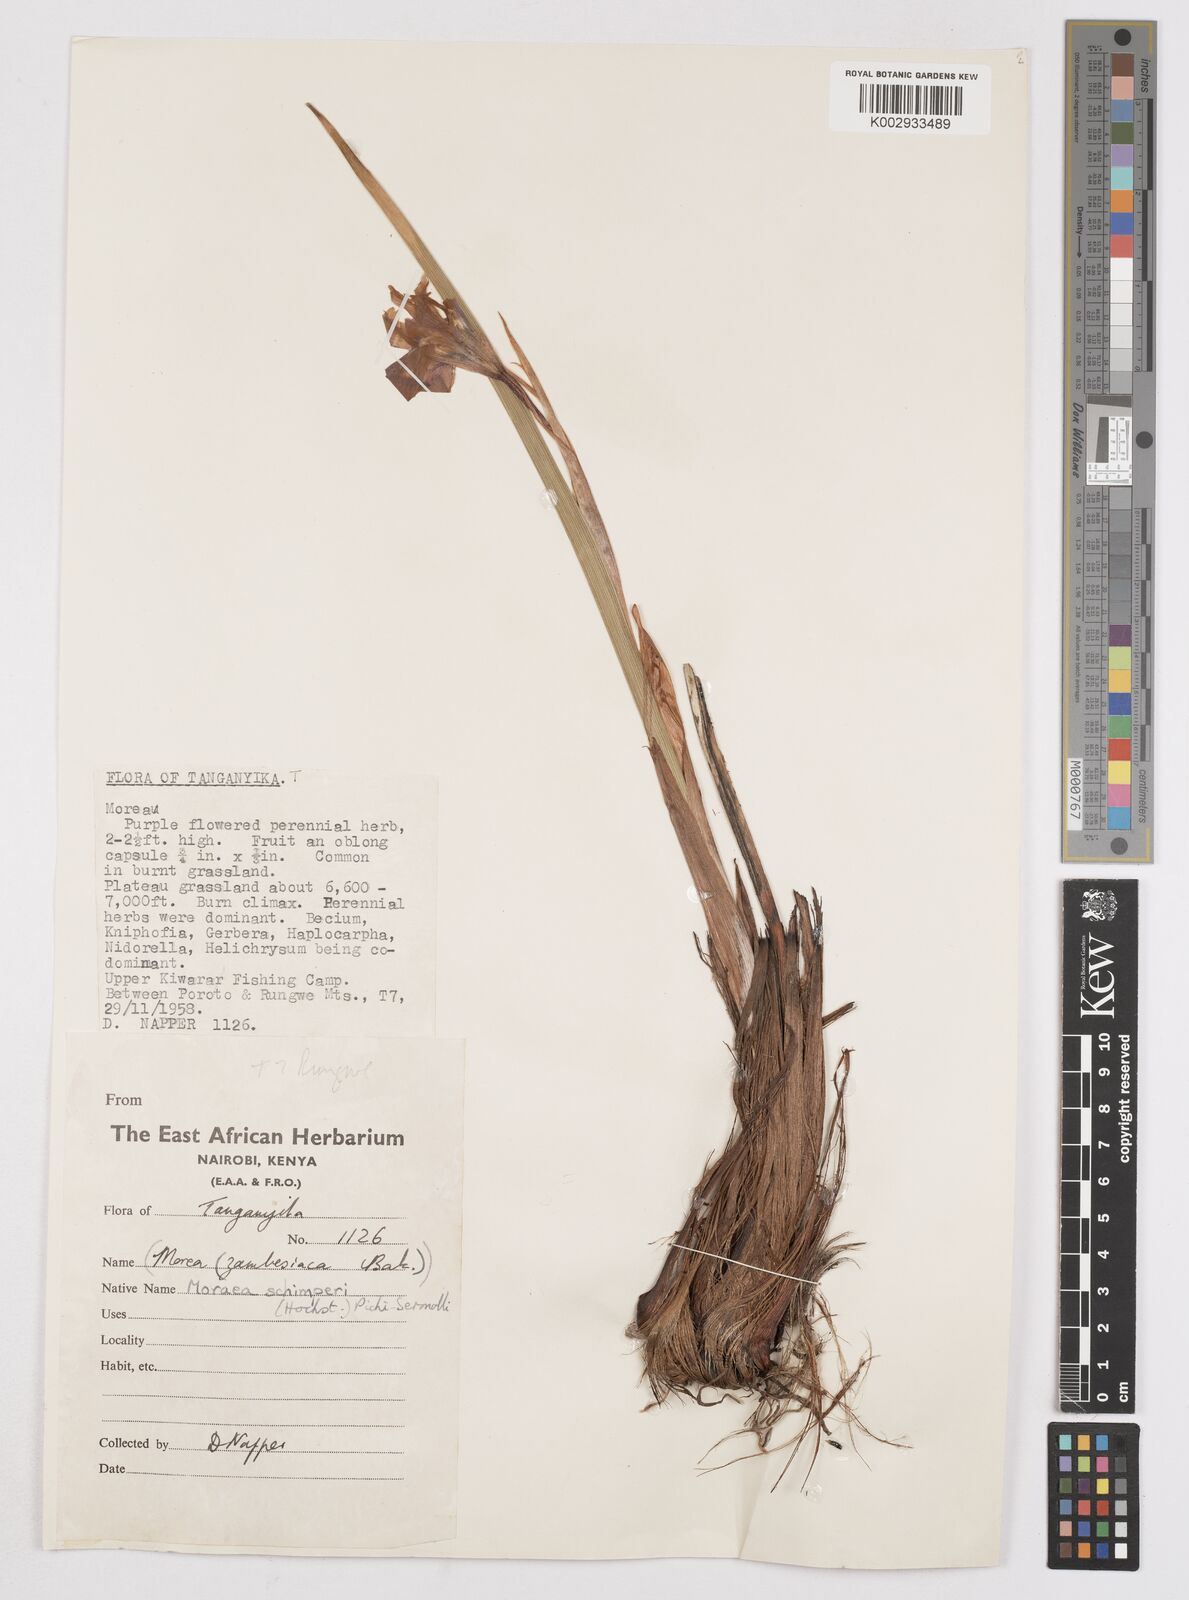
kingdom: Plantae
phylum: Tracheophyta
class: Liliopsida
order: Asparagales
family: Iridaceae
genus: Moraea
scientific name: Moraea schimperi
